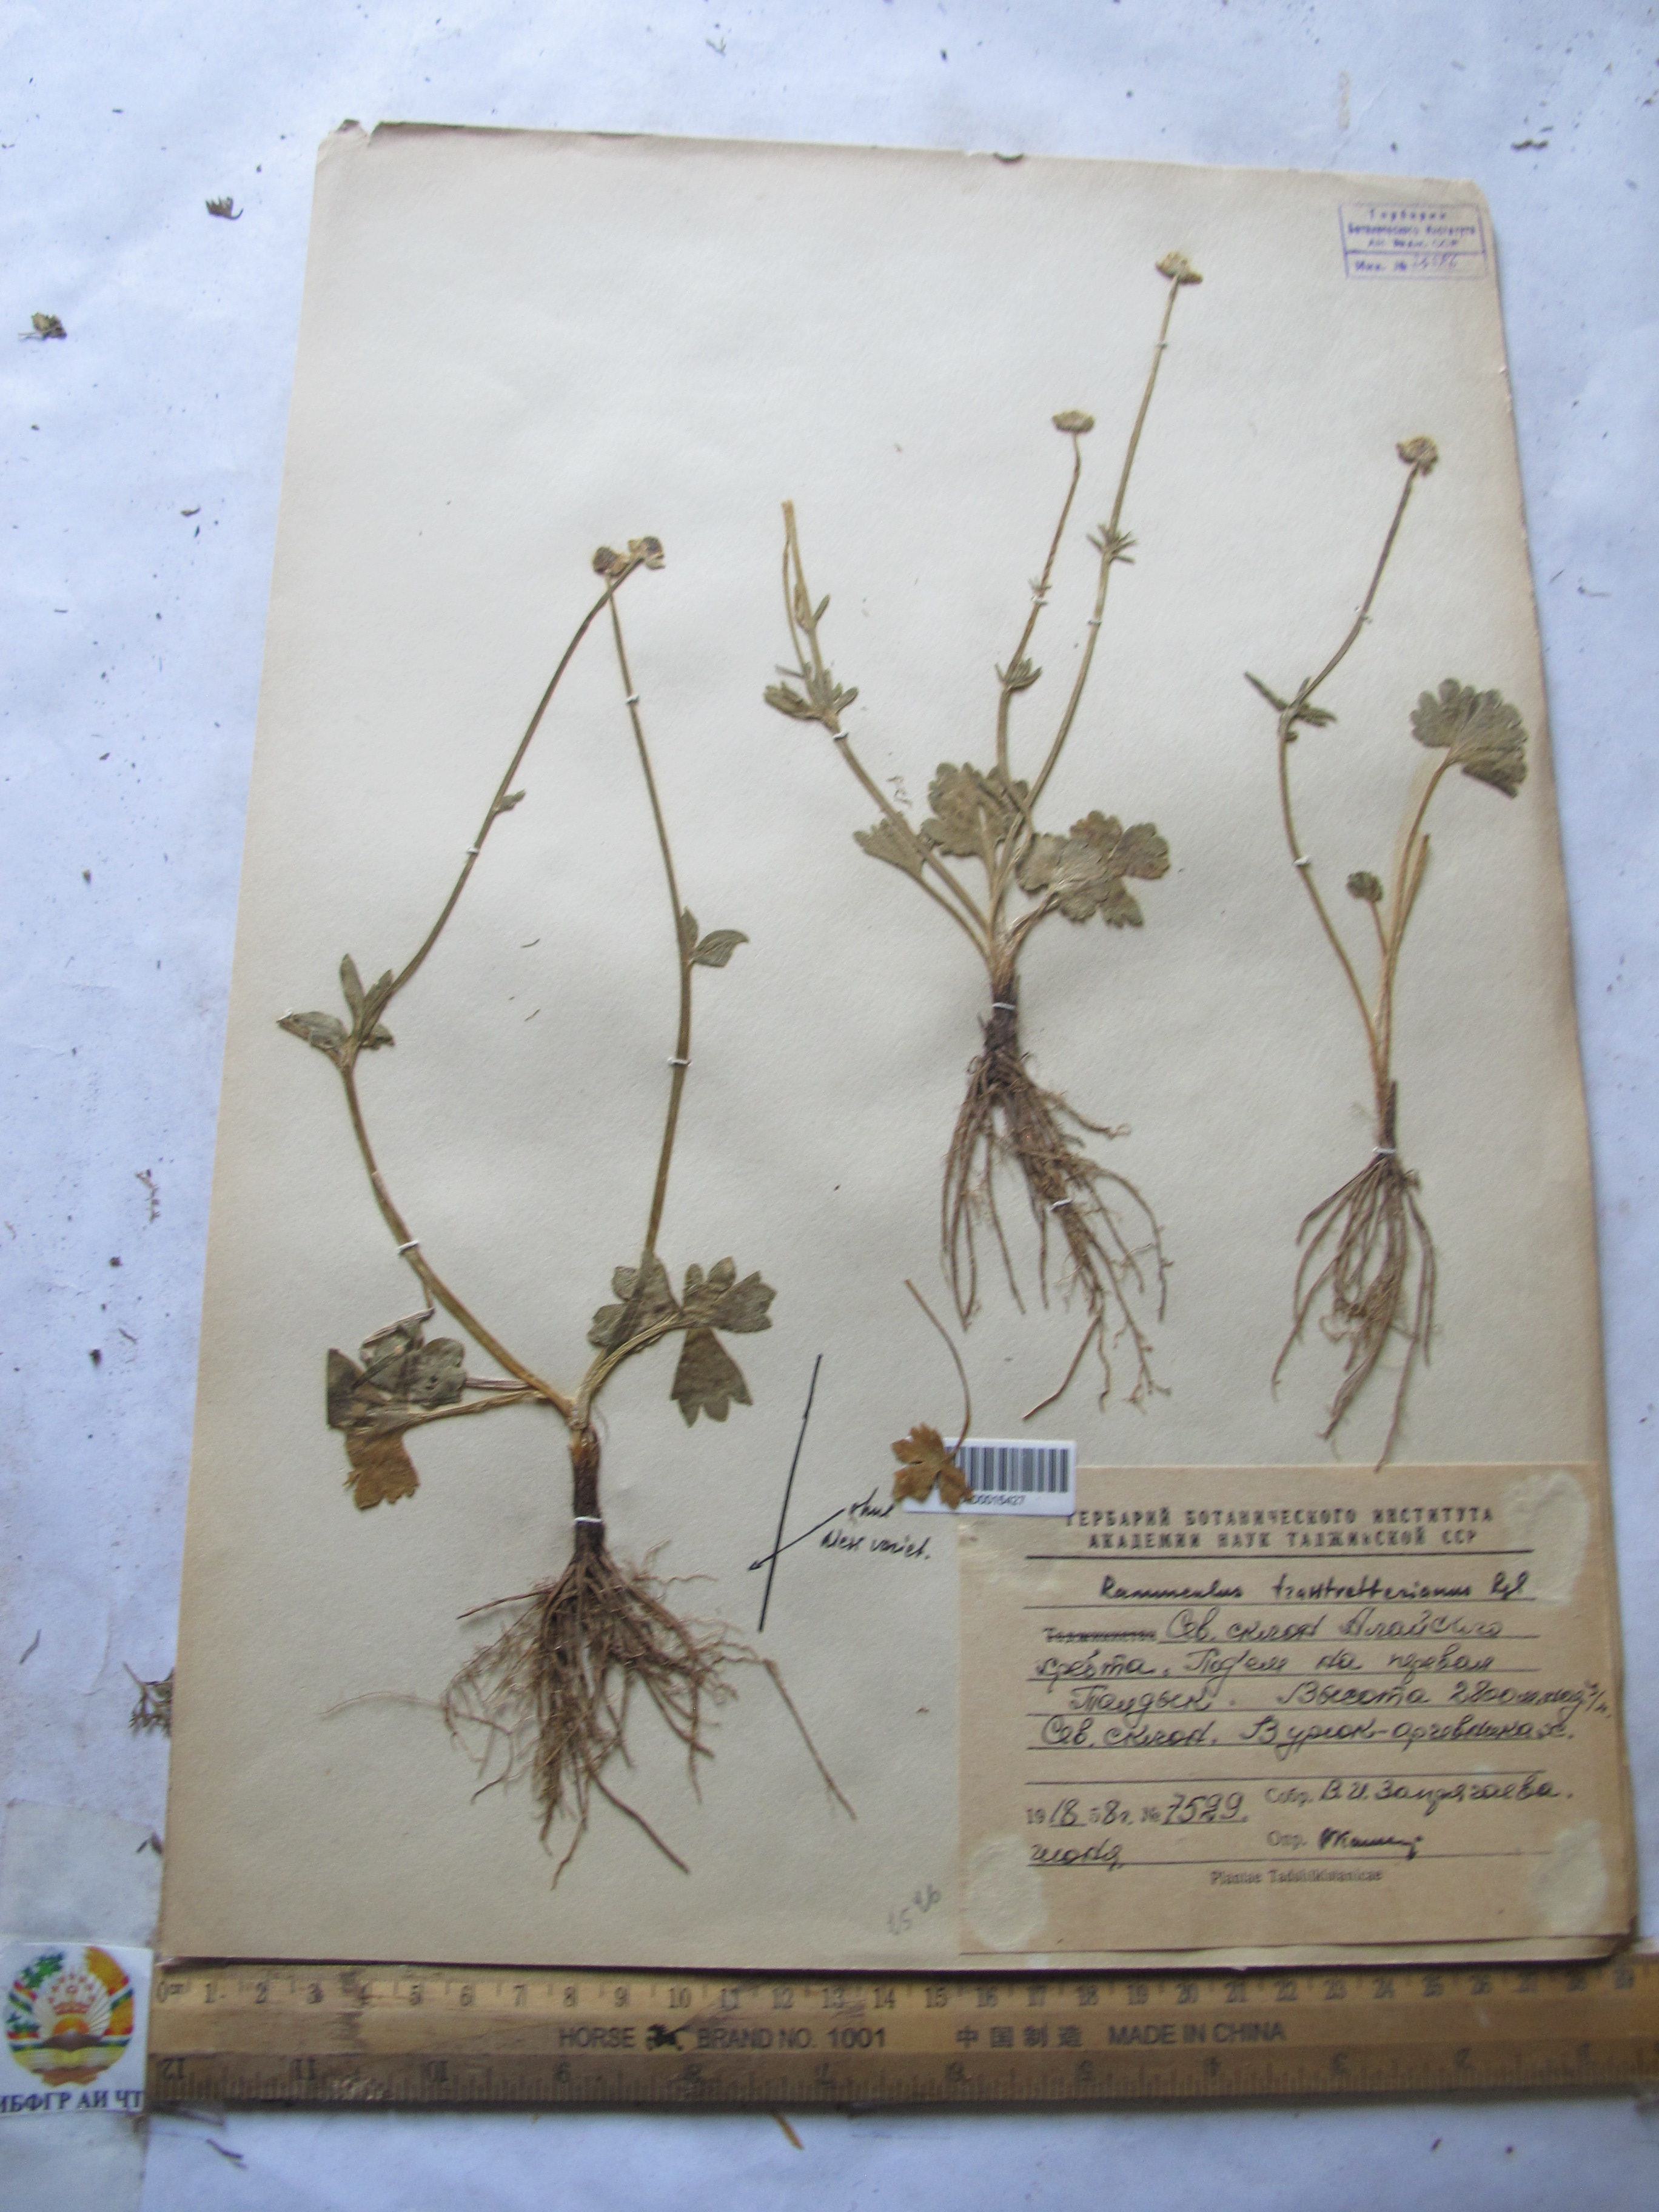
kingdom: Plantae
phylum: Tracheophyta
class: Magnoliopsida
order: Ranunculales
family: Ranunculaceae
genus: Ranunculus
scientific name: Ranunculus songaricus
